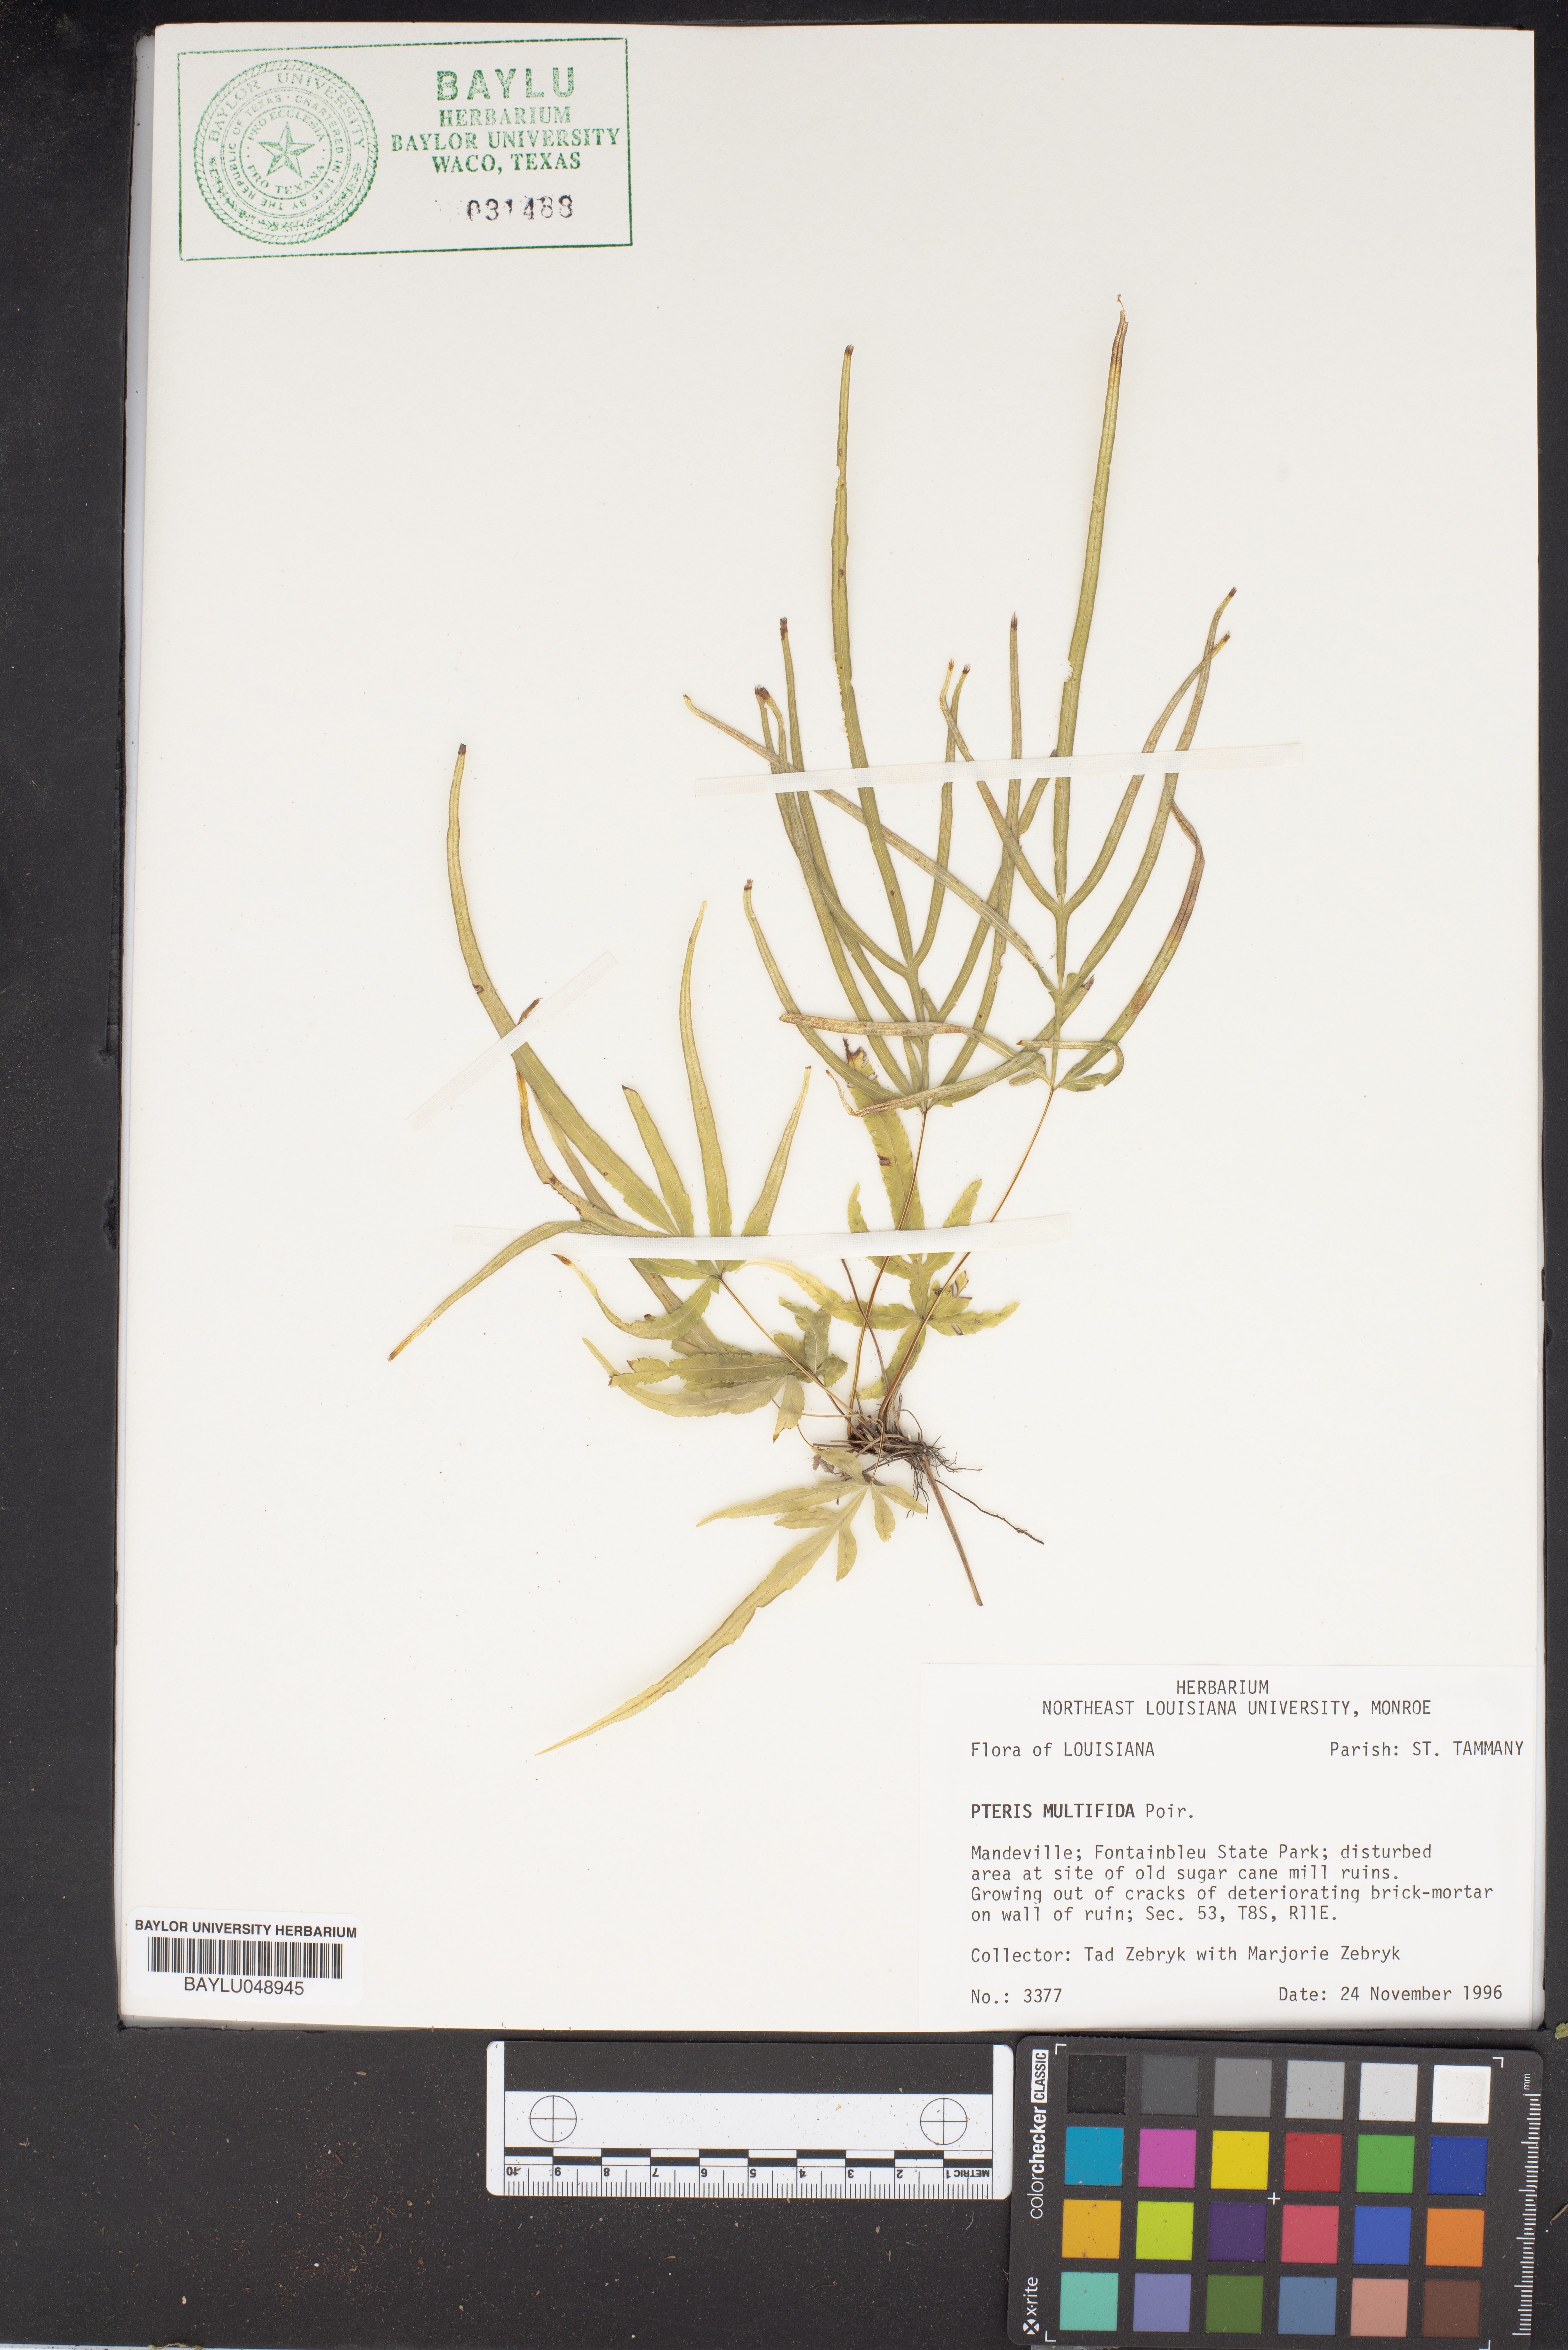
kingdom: Plantae
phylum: Tracheophyta
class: Polypodiopsida
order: Polypodiales
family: Pteridaceae
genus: Pteris
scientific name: Pteris multifida
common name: Spider brake
